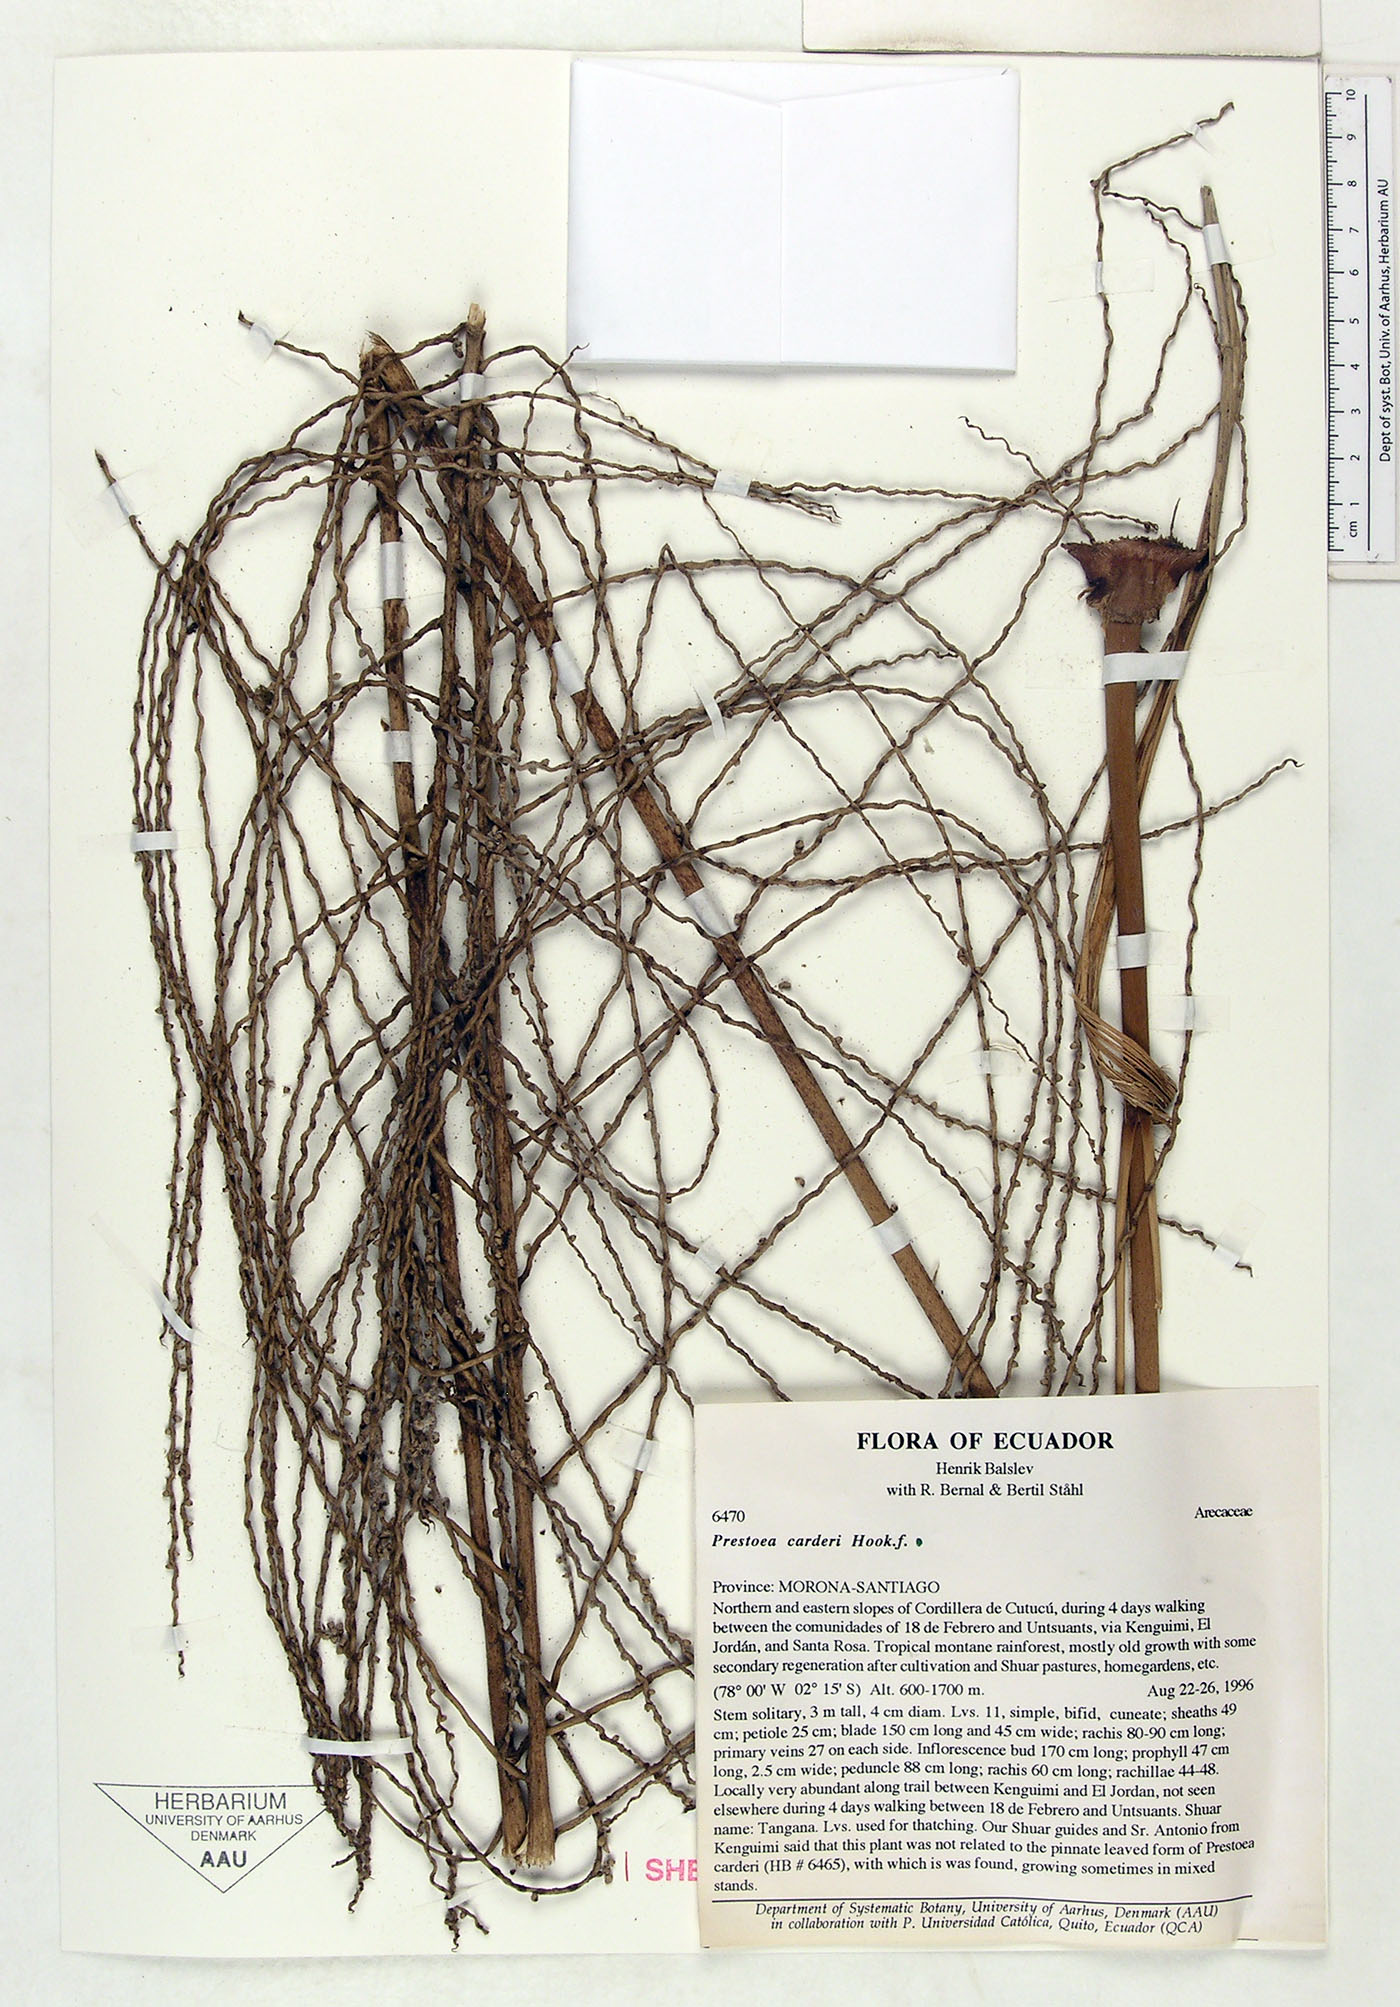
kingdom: Plantae
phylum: Tracheophyta
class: Liliopsida
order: Arecales
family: Arecaceae
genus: Prestoea
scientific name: Prestoea carderi
